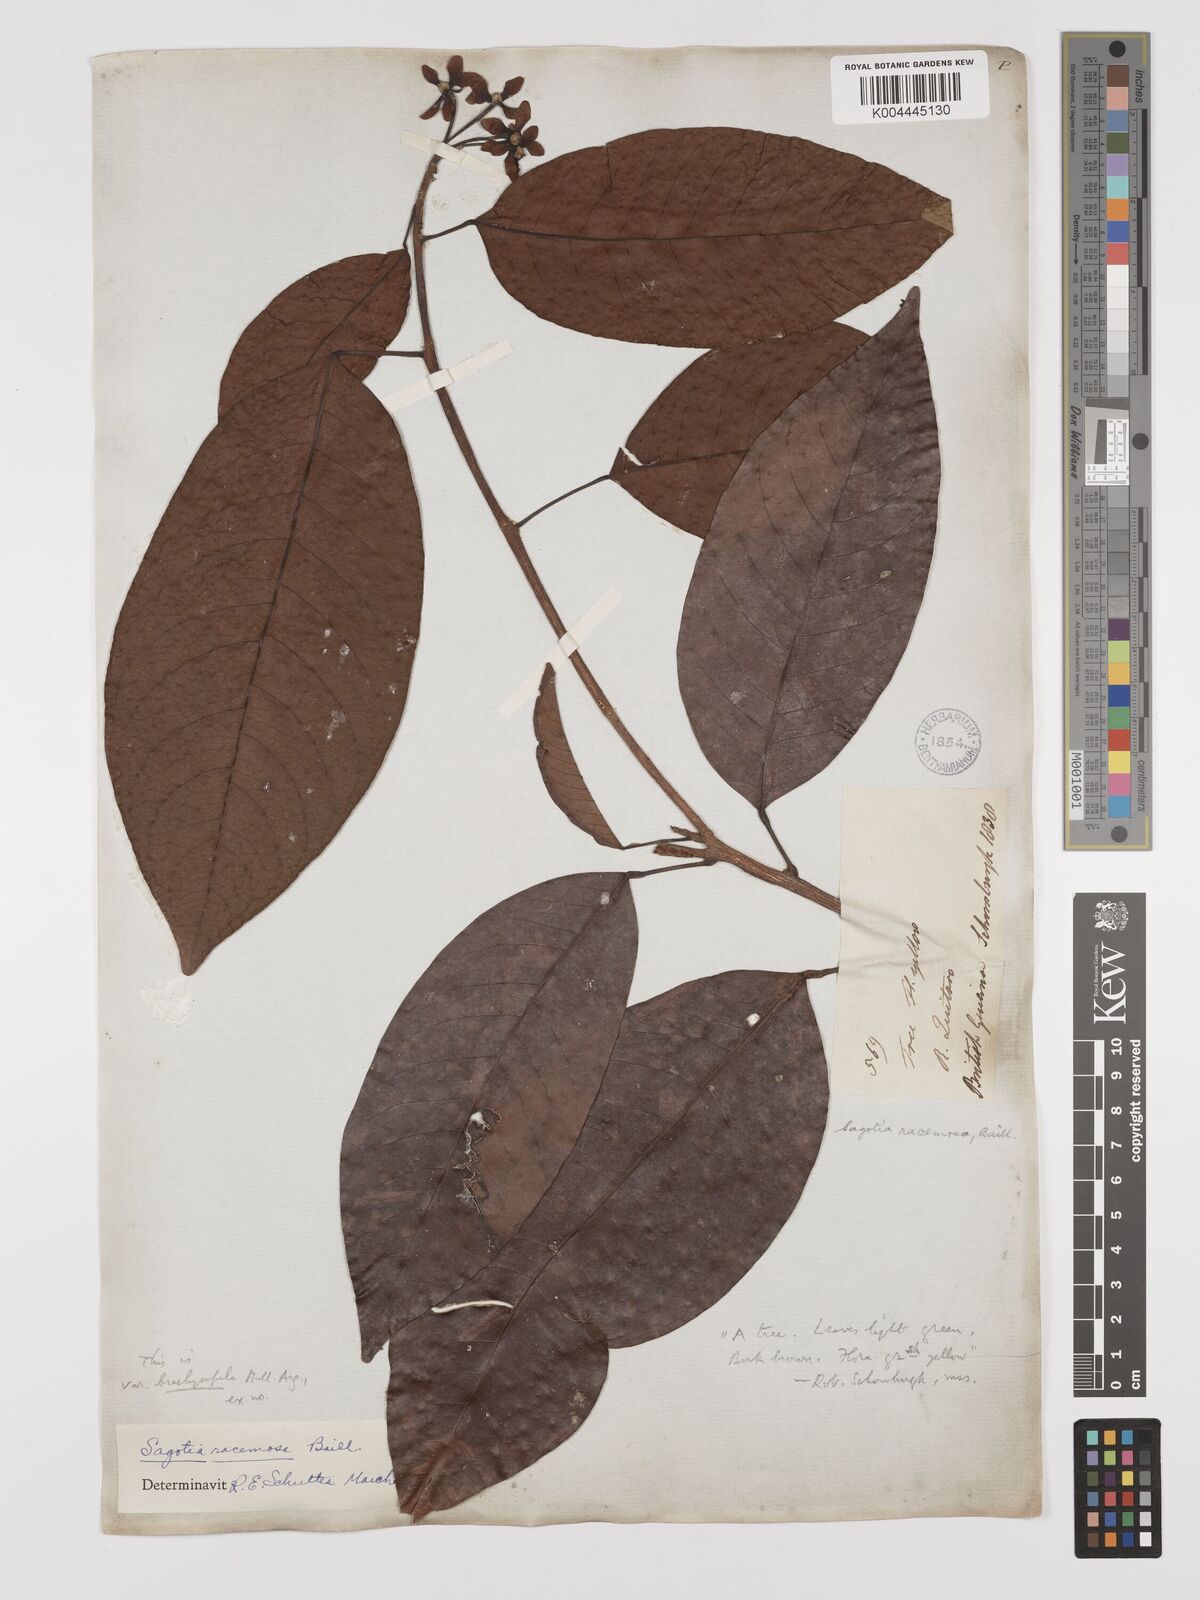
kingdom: Plantae
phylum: Tracheophyta
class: Magnoliopsida
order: Malpighiales
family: Euphorbiaceae
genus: Sagotia
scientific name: Sagotia racemosa
